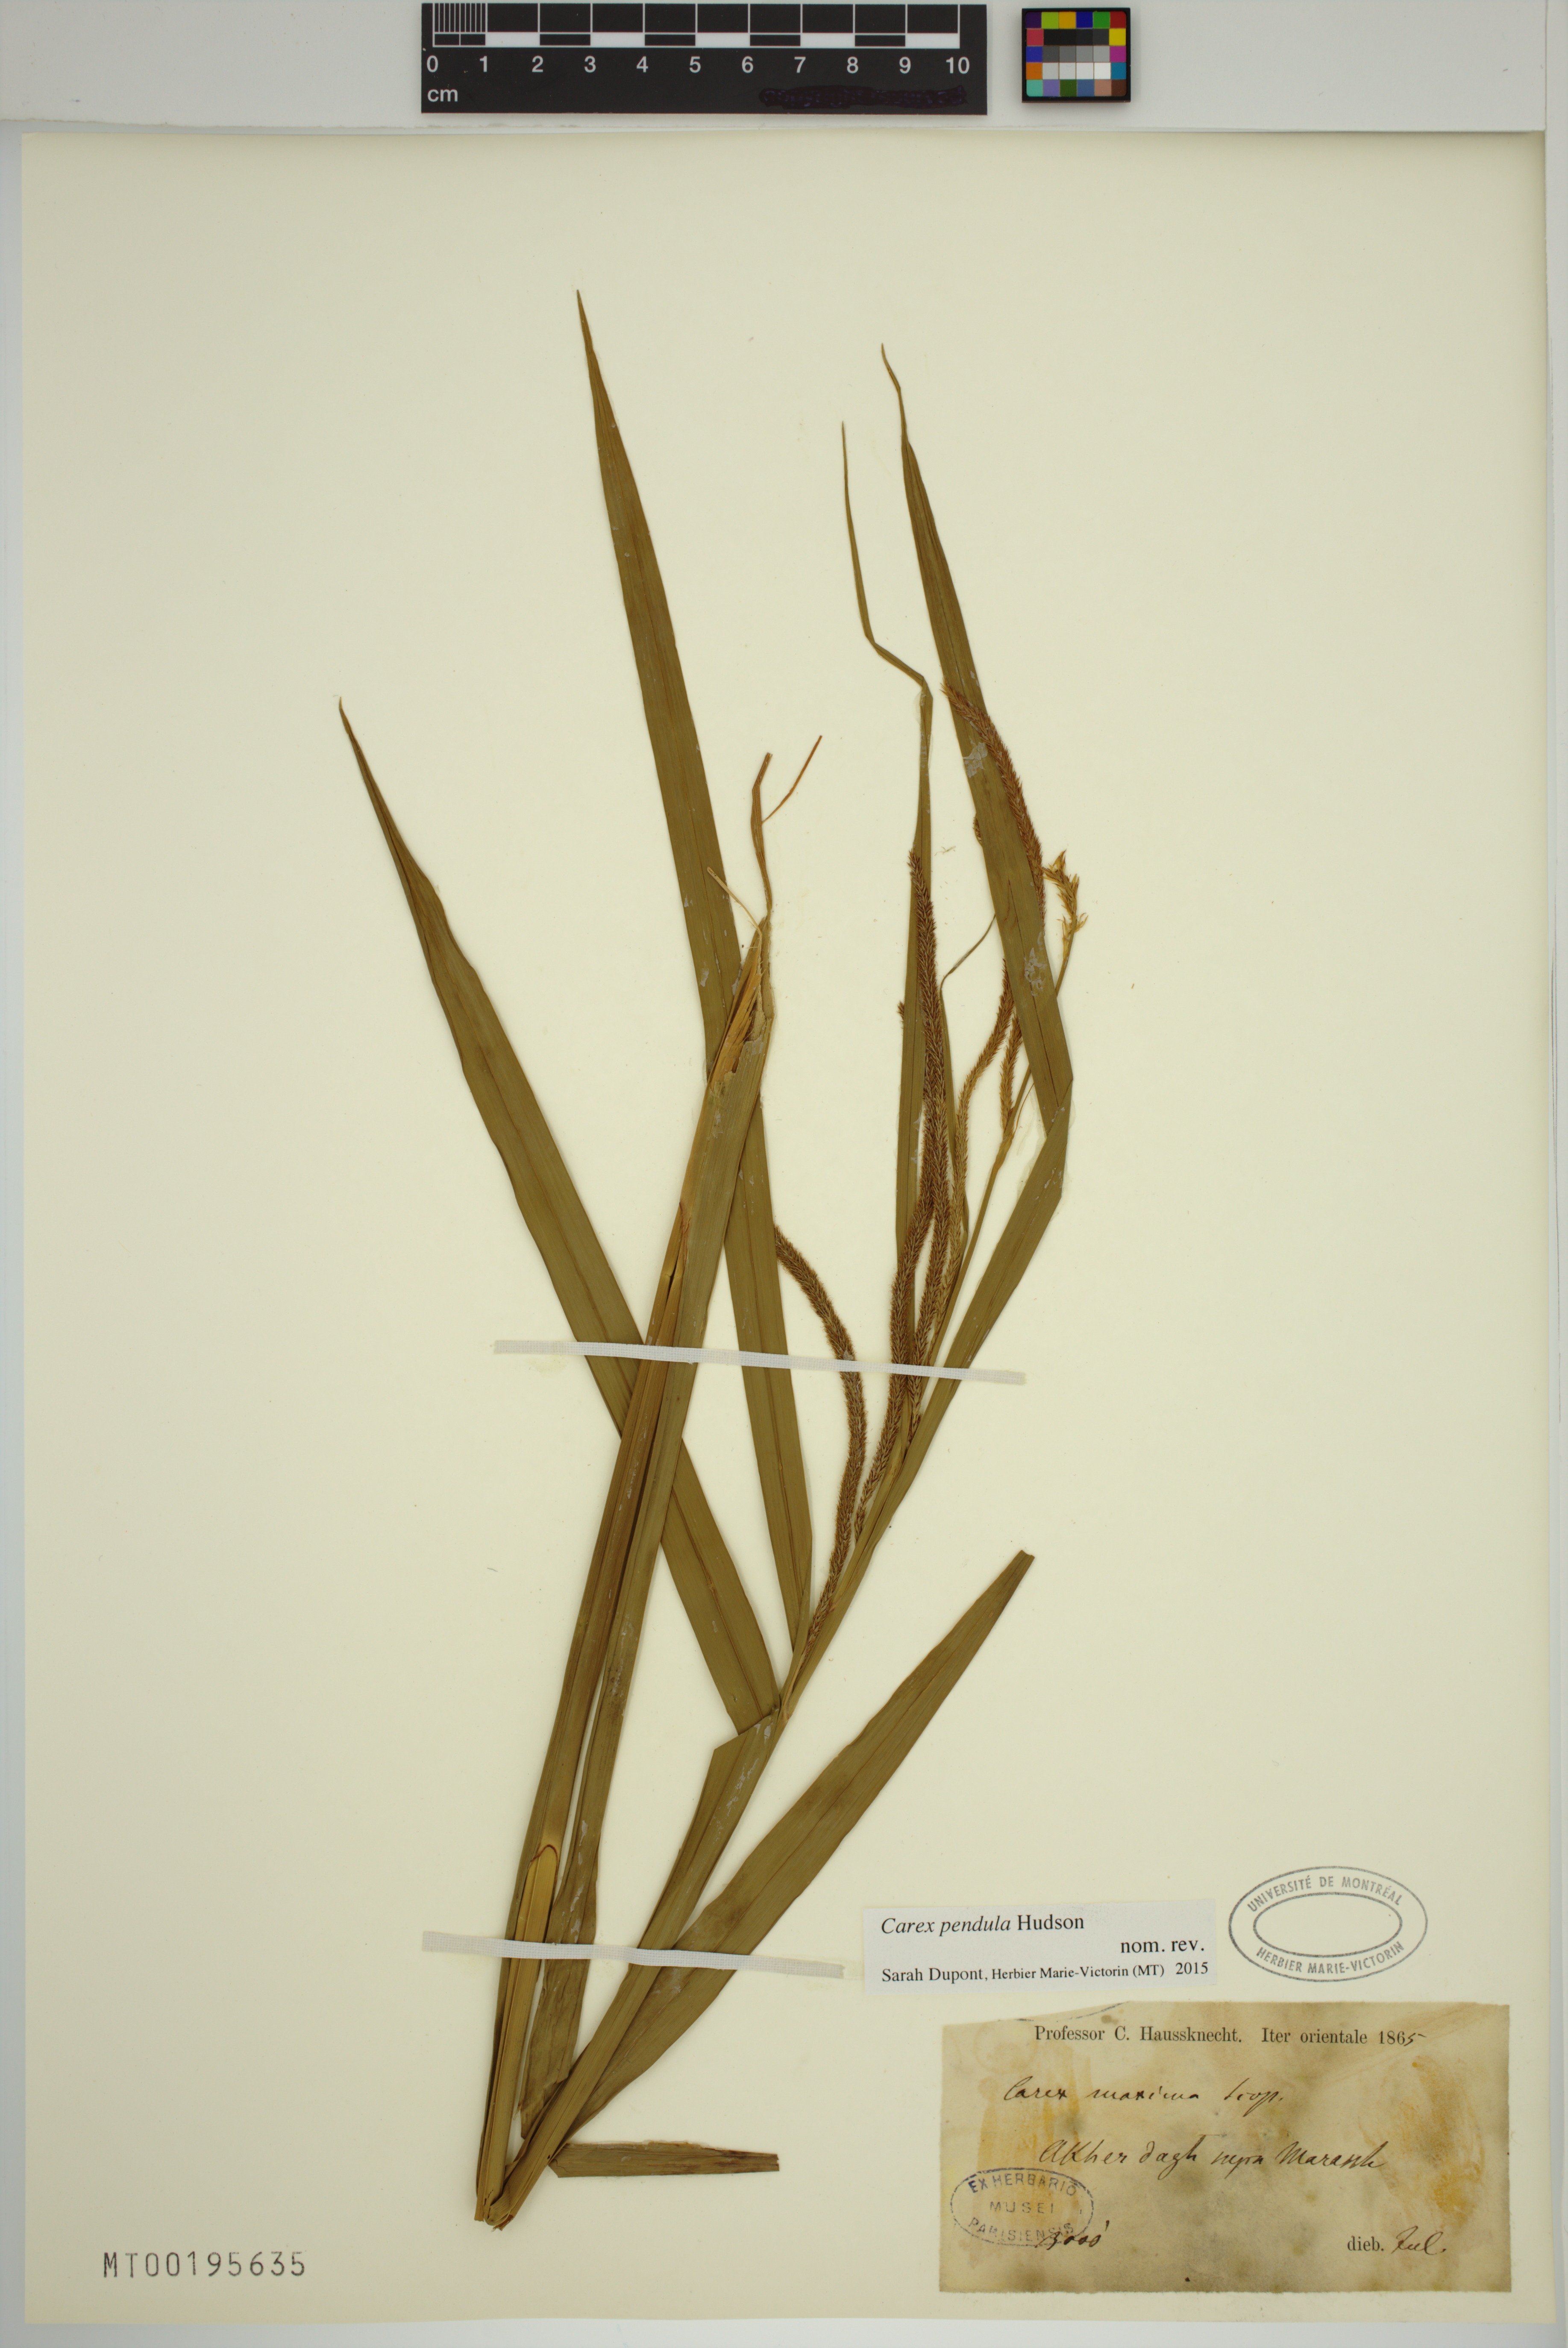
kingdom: Plantae
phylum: Tracheophyta
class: Liliopsida
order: Poales
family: Cyperaceae
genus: Carex
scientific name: Carex pendula
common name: Pendulous sedge
